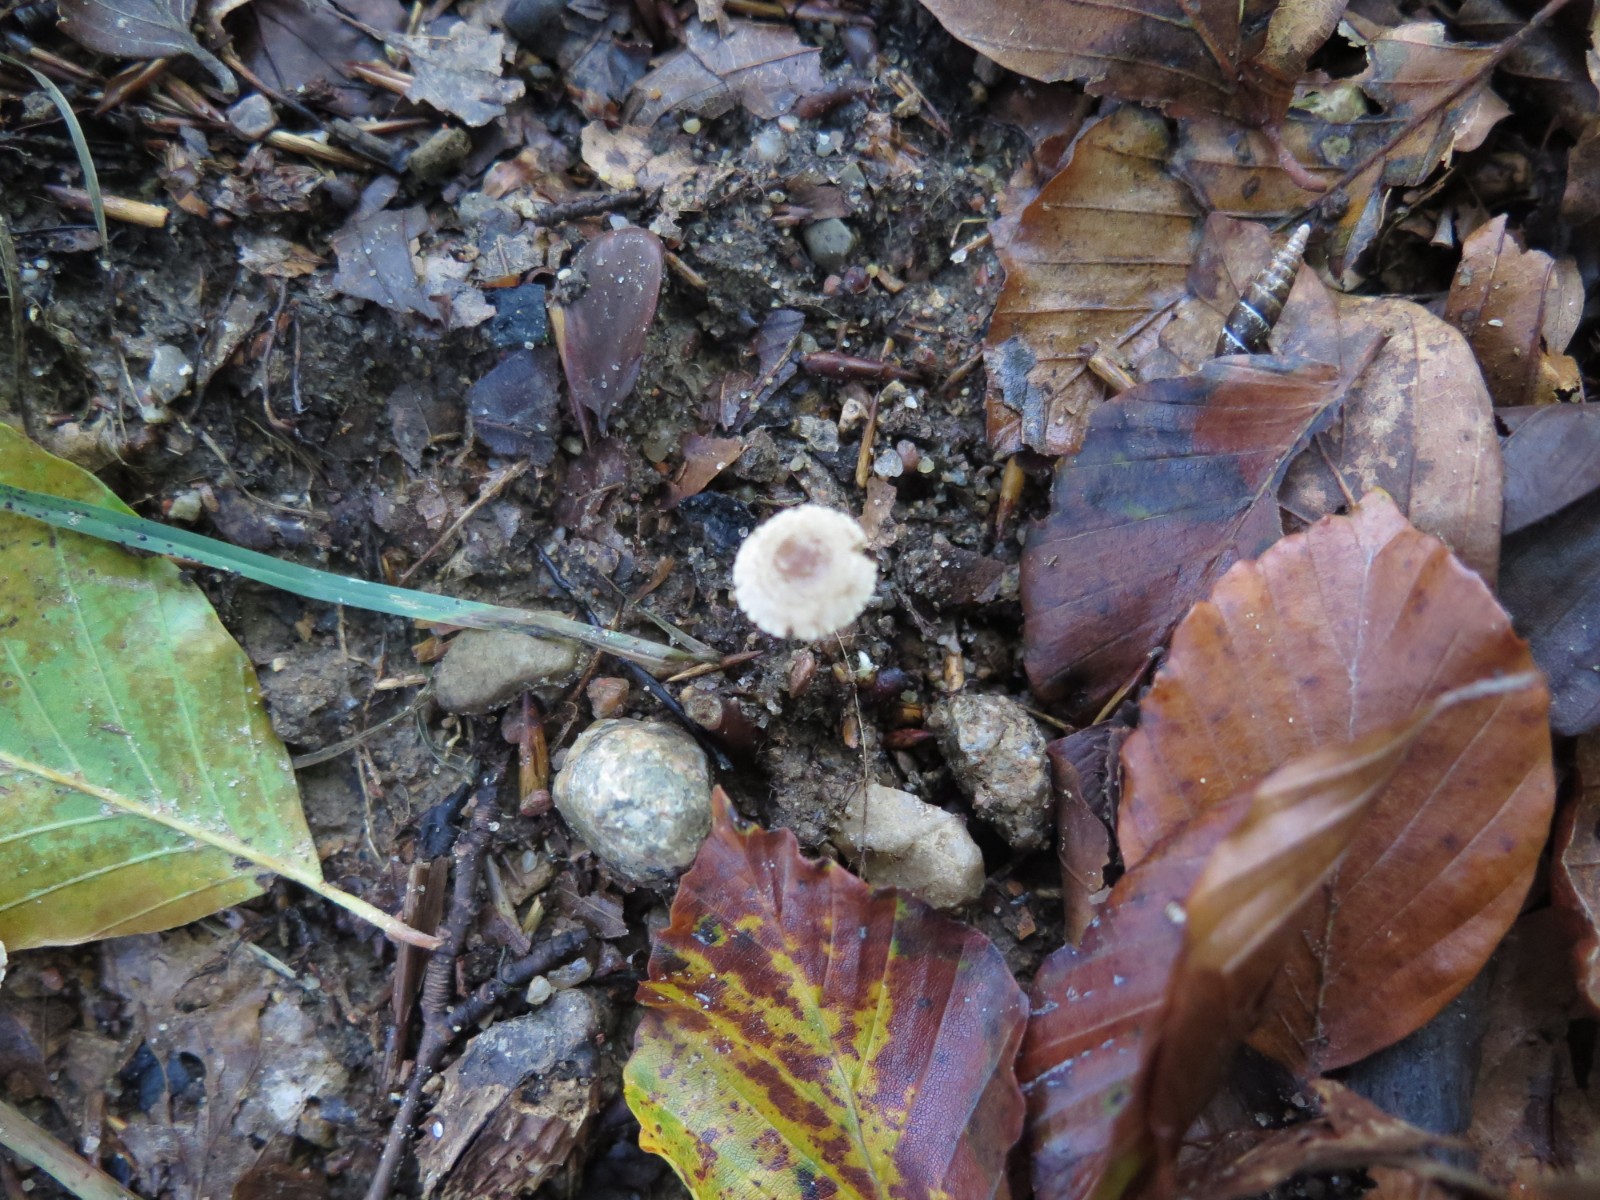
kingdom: Fungi
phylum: Basidiomycota
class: Agaricomycetes
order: Agaricales
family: Inocybaceae
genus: Inocybe
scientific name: Inocybe petiginosa
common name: liden trævlhat
